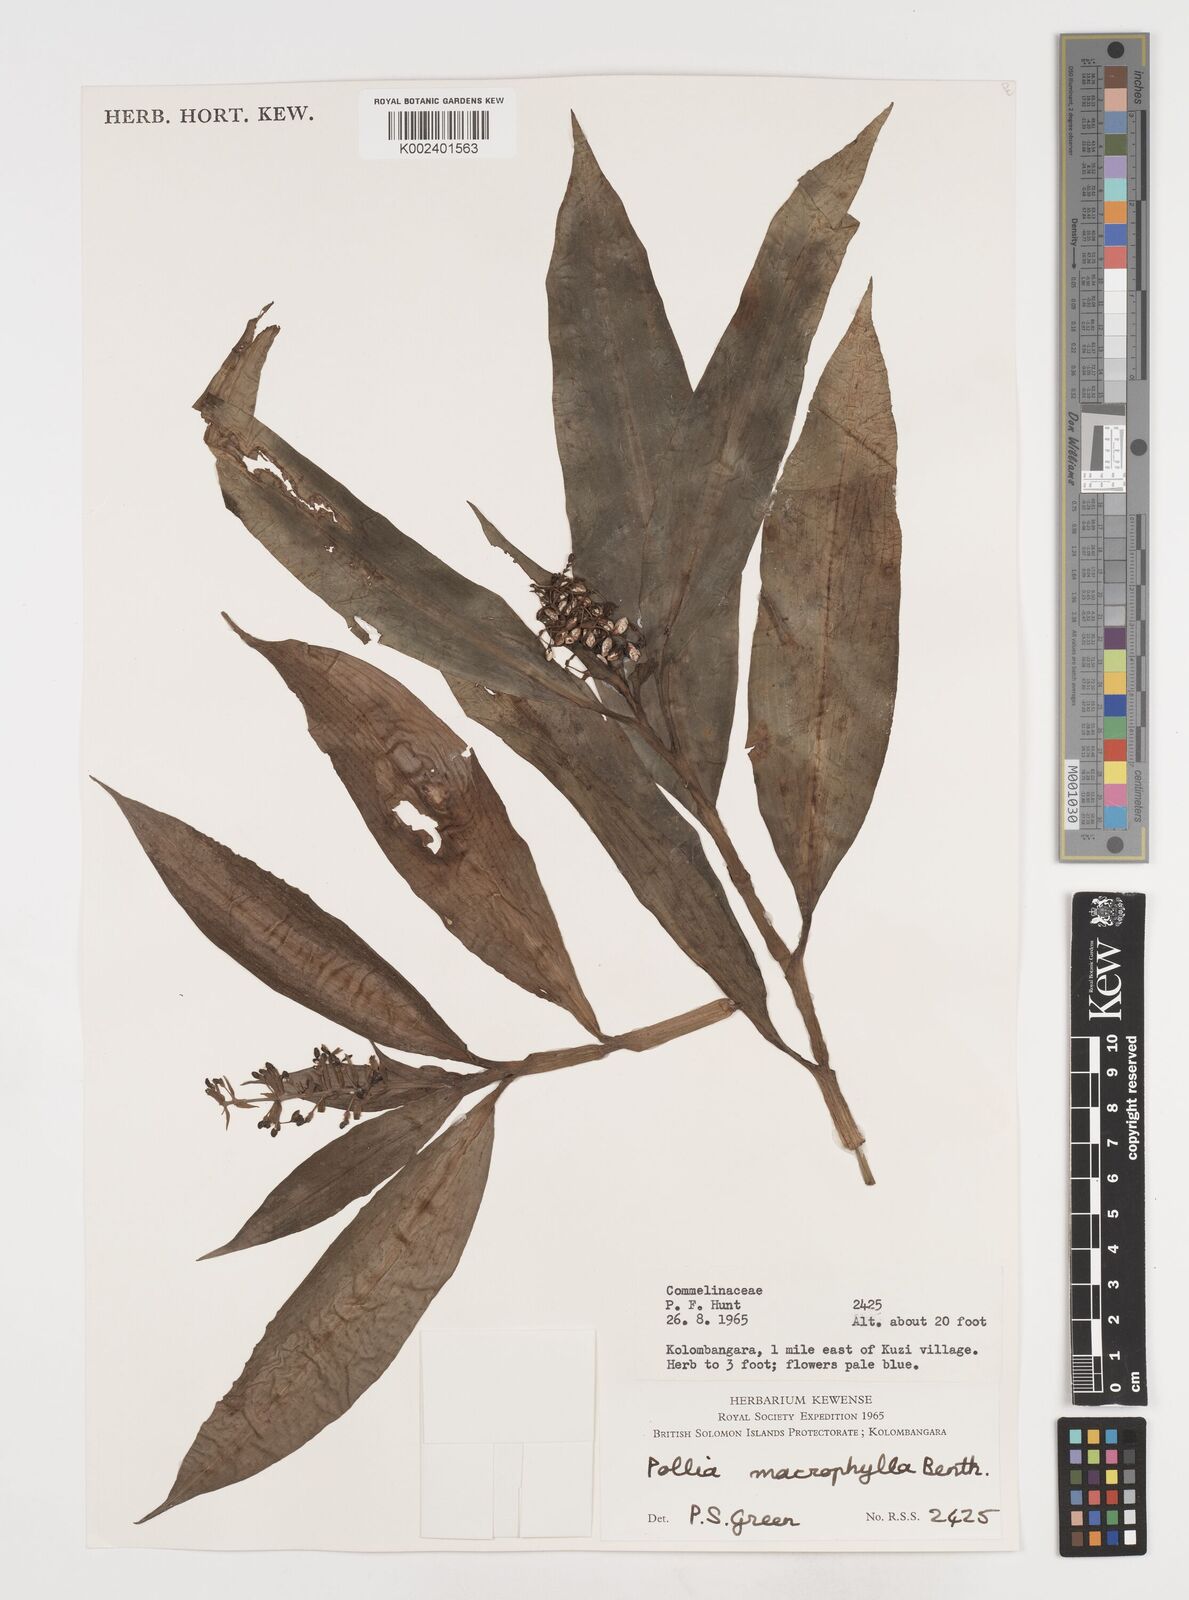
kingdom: Plantae
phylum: Tracheophyta
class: Liliopsida
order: Commelinales
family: Commelinaceae
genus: Pollia
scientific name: Pollia macrophylla
